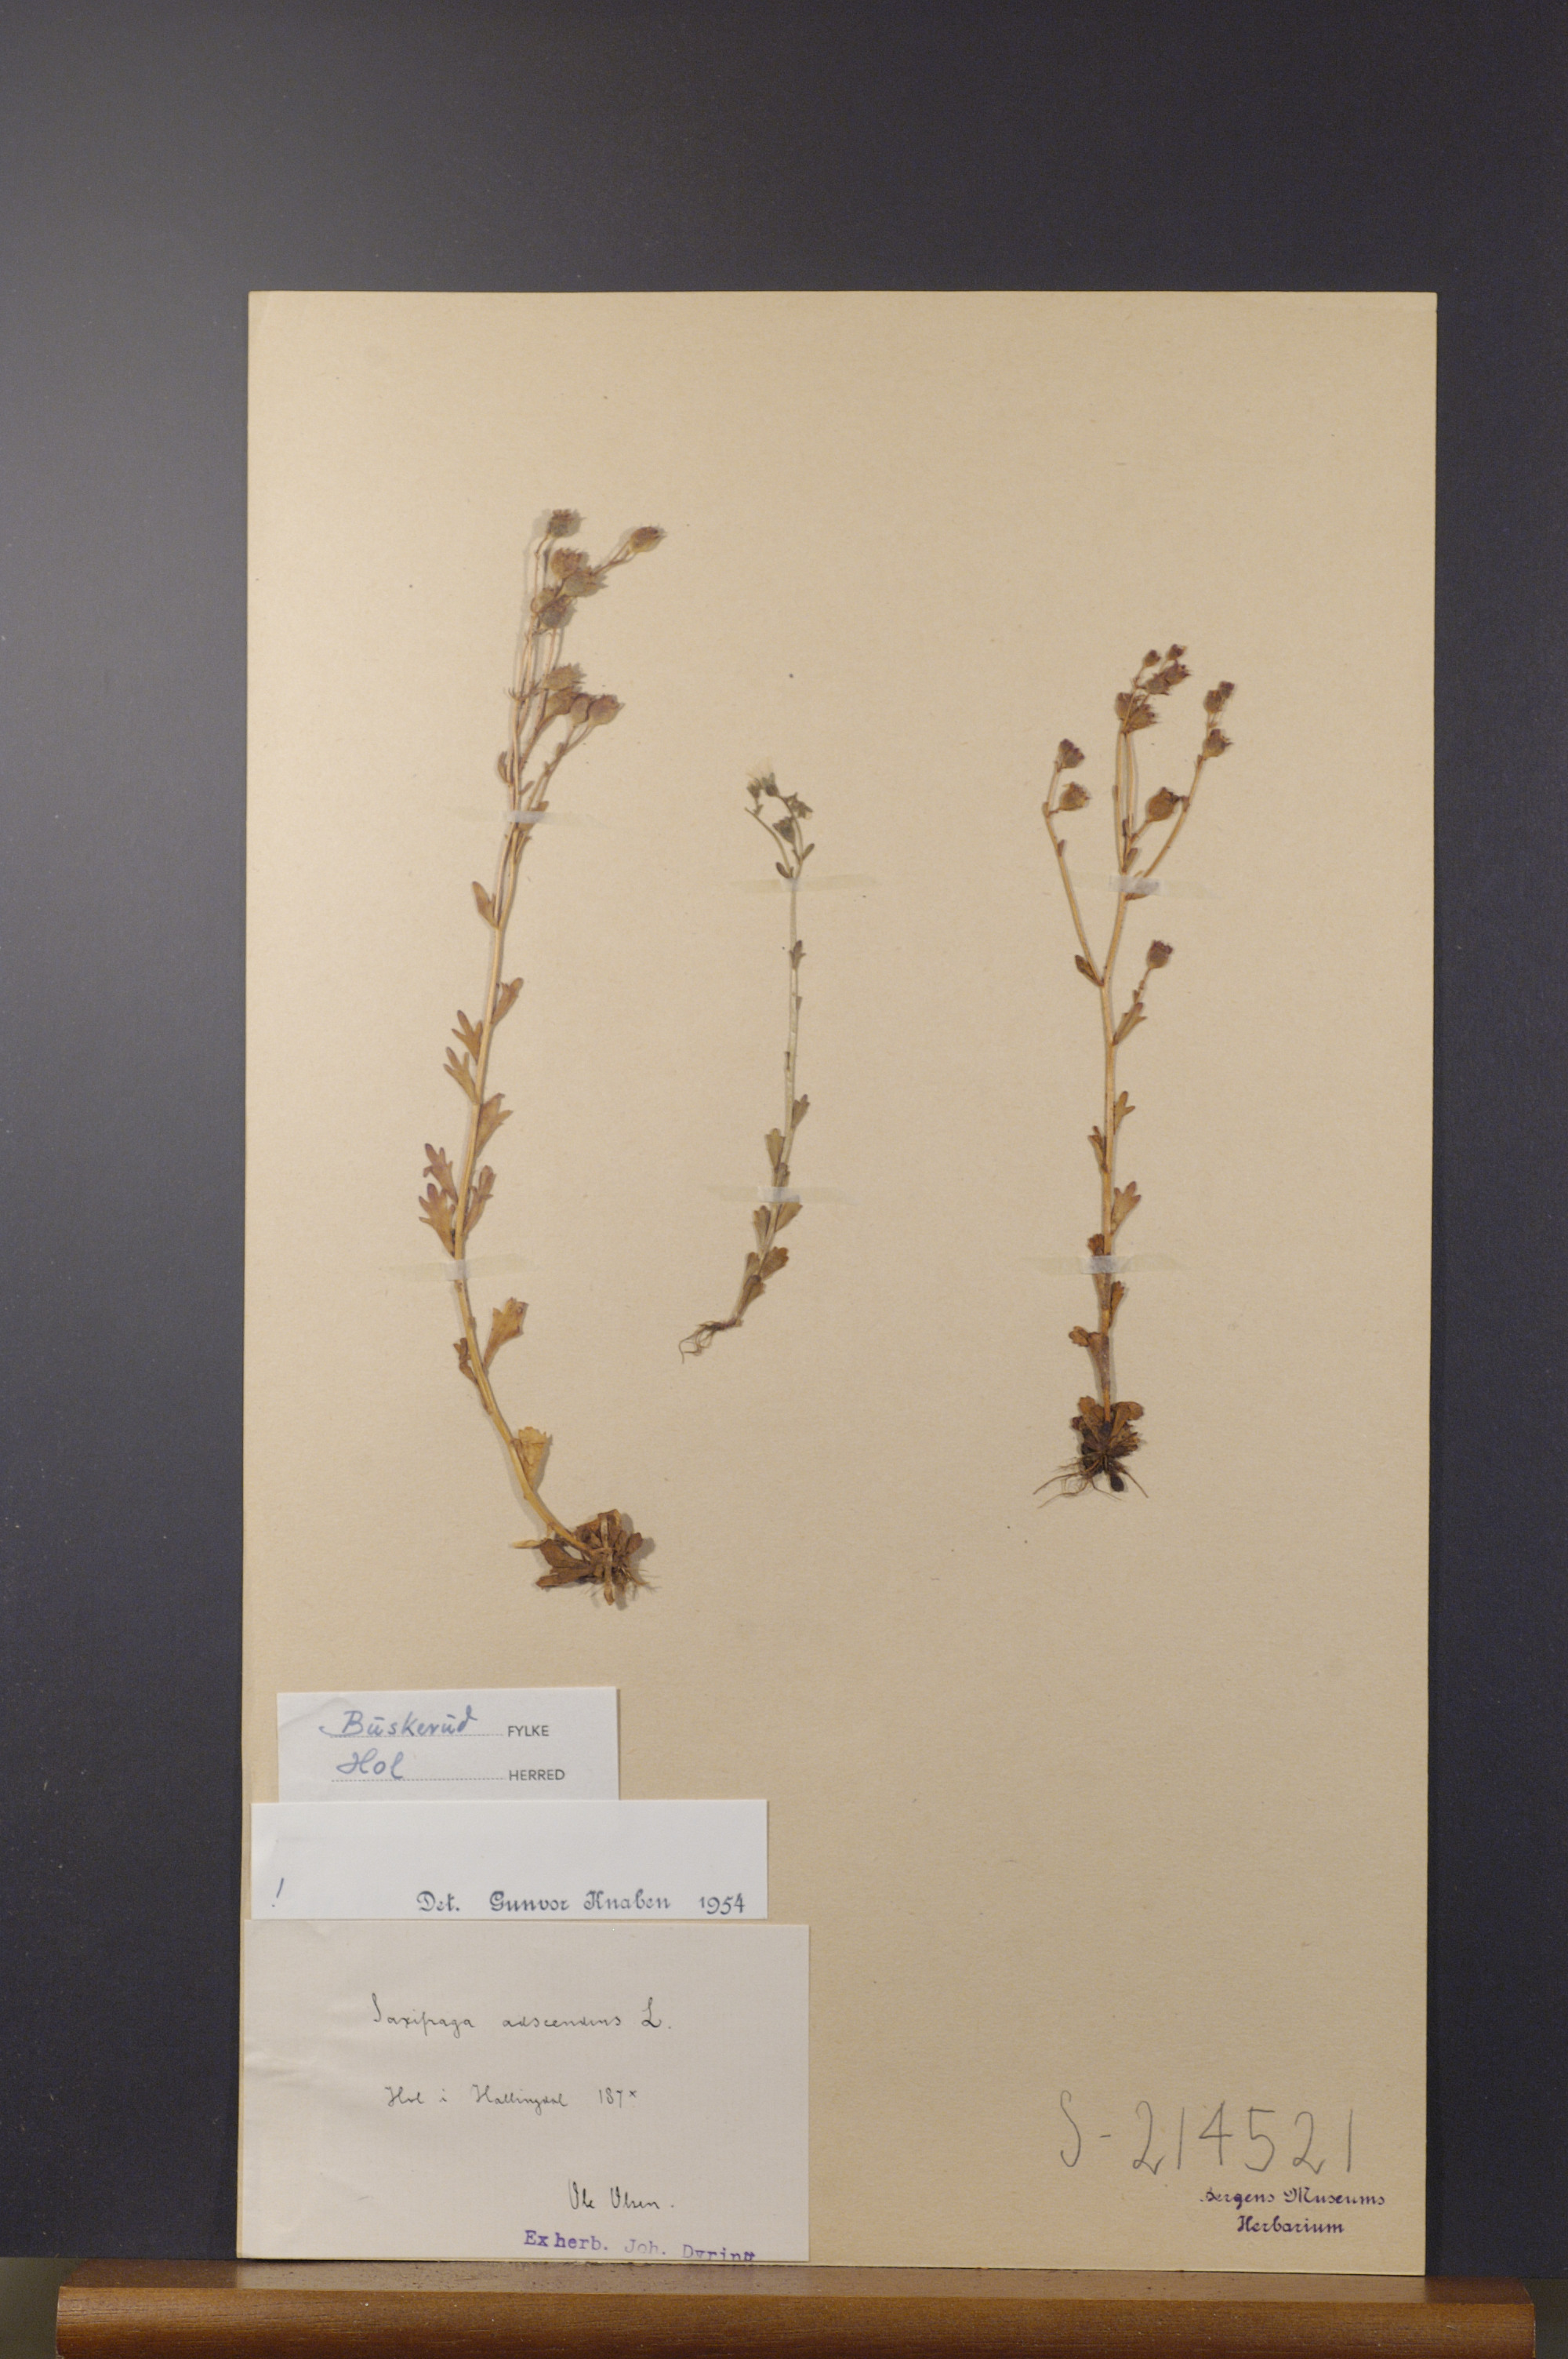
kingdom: Plantae
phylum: Tracheophyta
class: Magnoliopsida
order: Saxifragales
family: Saxifragaceae
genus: Saxifraga
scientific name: Saxifraga adscendens
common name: Ascending saxifrage
